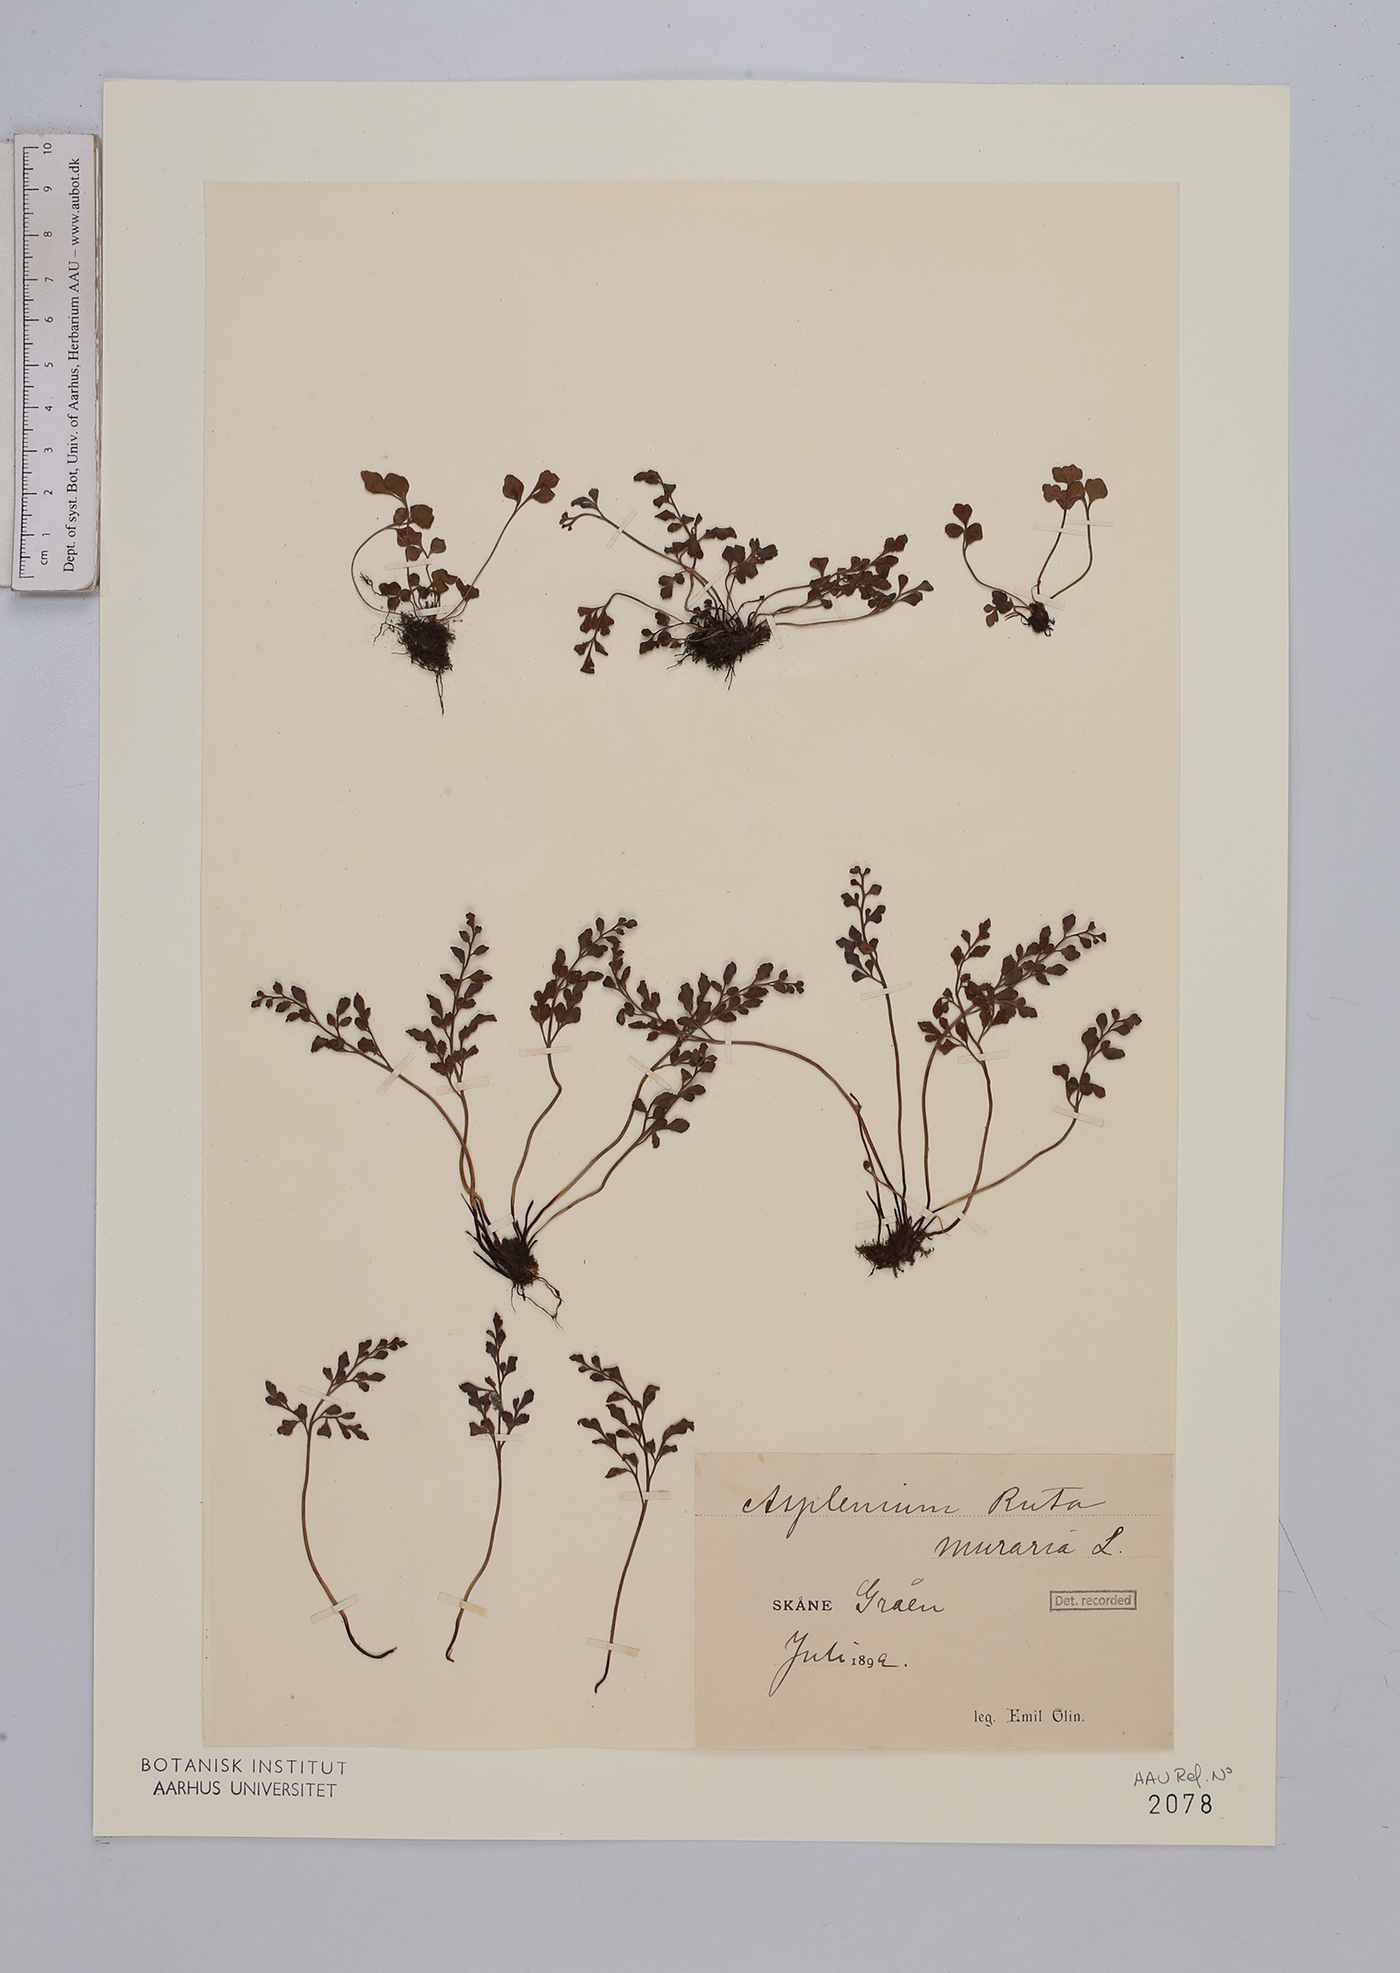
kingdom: Plantae
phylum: Tracheophyta
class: Polypodiopsida
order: Polypodiales
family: Aspleniaceae
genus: Asplenium
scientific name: Asplenium ruta-muraria
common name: Wall-rue
